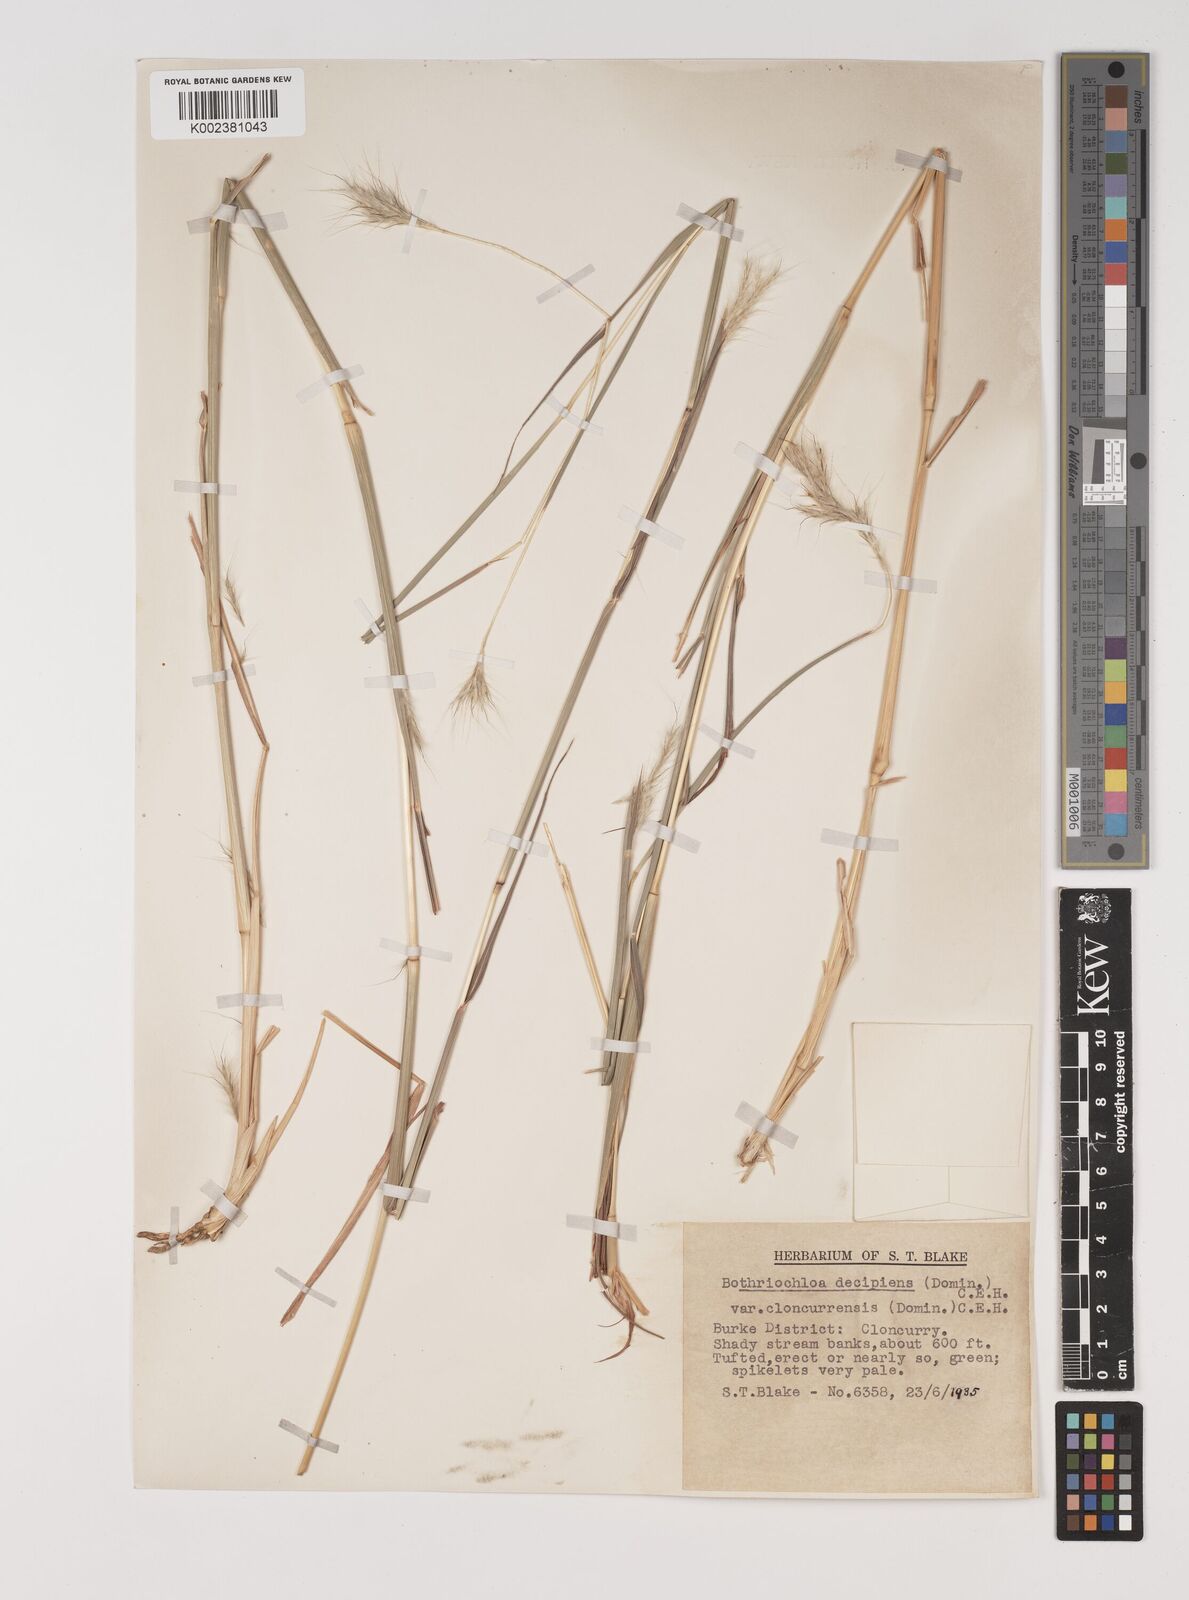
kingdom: Plantae
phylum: Tracheophyta
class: Liliopsida
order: Poales
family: Poaceae
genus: Bothriochloa
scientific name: Bothriochloa decipiens
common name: Pitted-bluegrass
